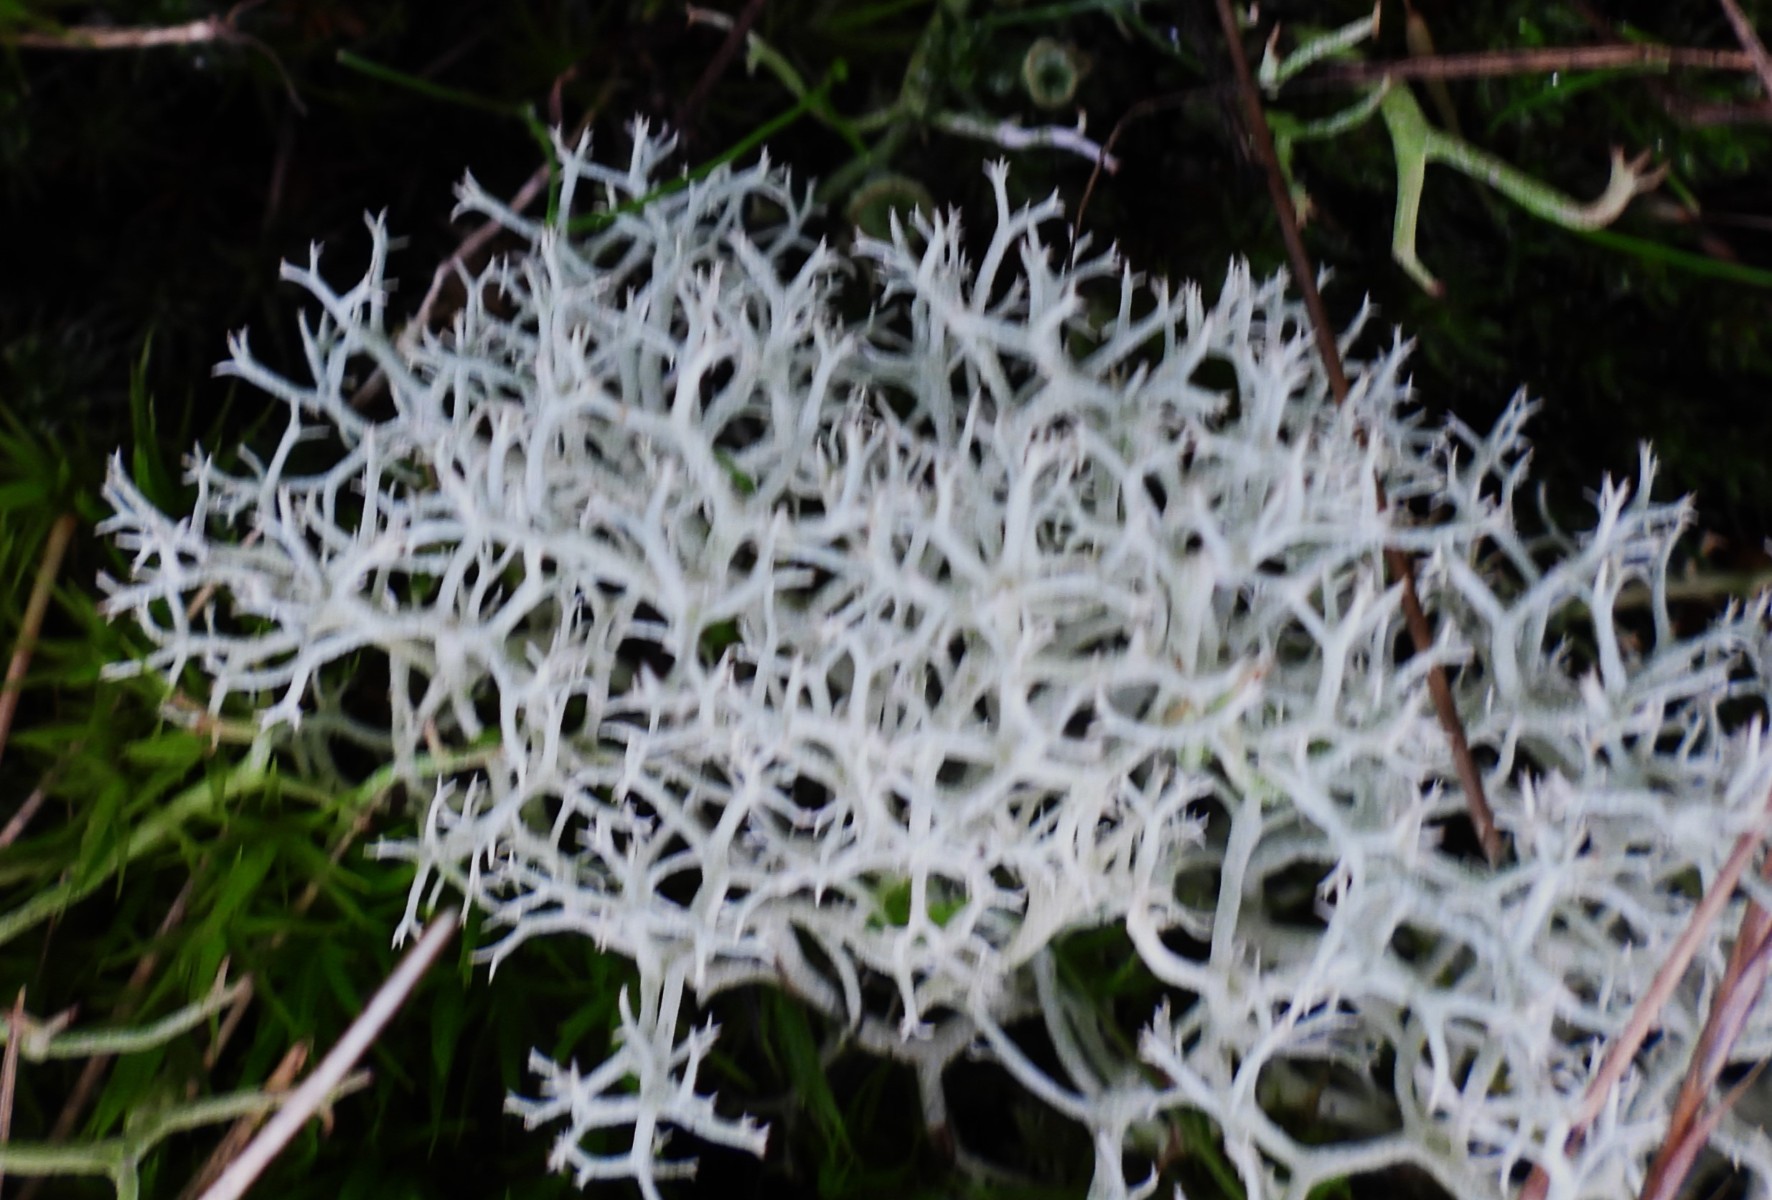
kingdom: Fungi
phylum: Ascomycota
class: Lecanoromycetes
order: Lecanorales
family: Cladoniaceae
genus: Cladonia
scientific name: Cladonia portentosa
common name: hede-rensdyrlav
